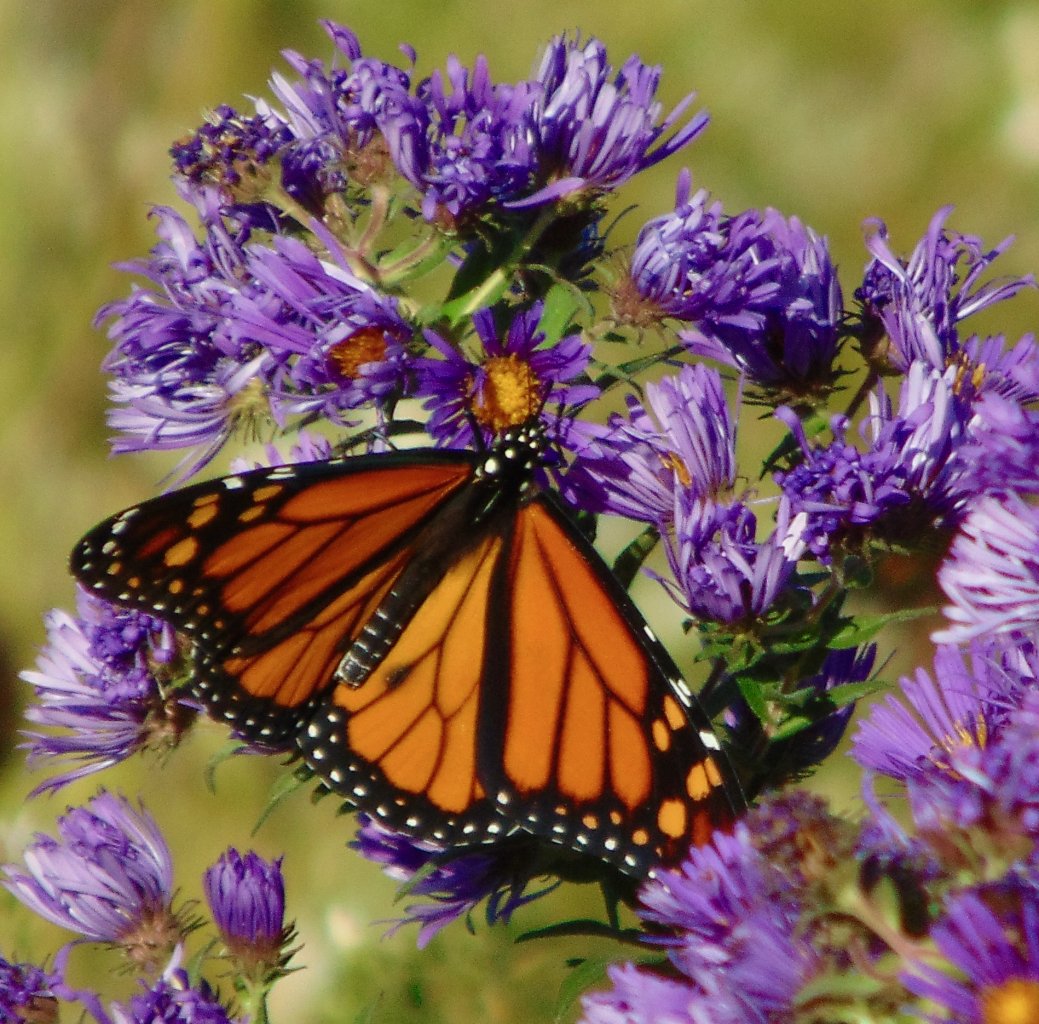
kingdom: Animalia
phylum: Arthropoda
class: Insecta
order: Lepidoptera
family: Nymphalidae
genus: Danaus
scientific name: Danaus plexippus
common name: Monarch
